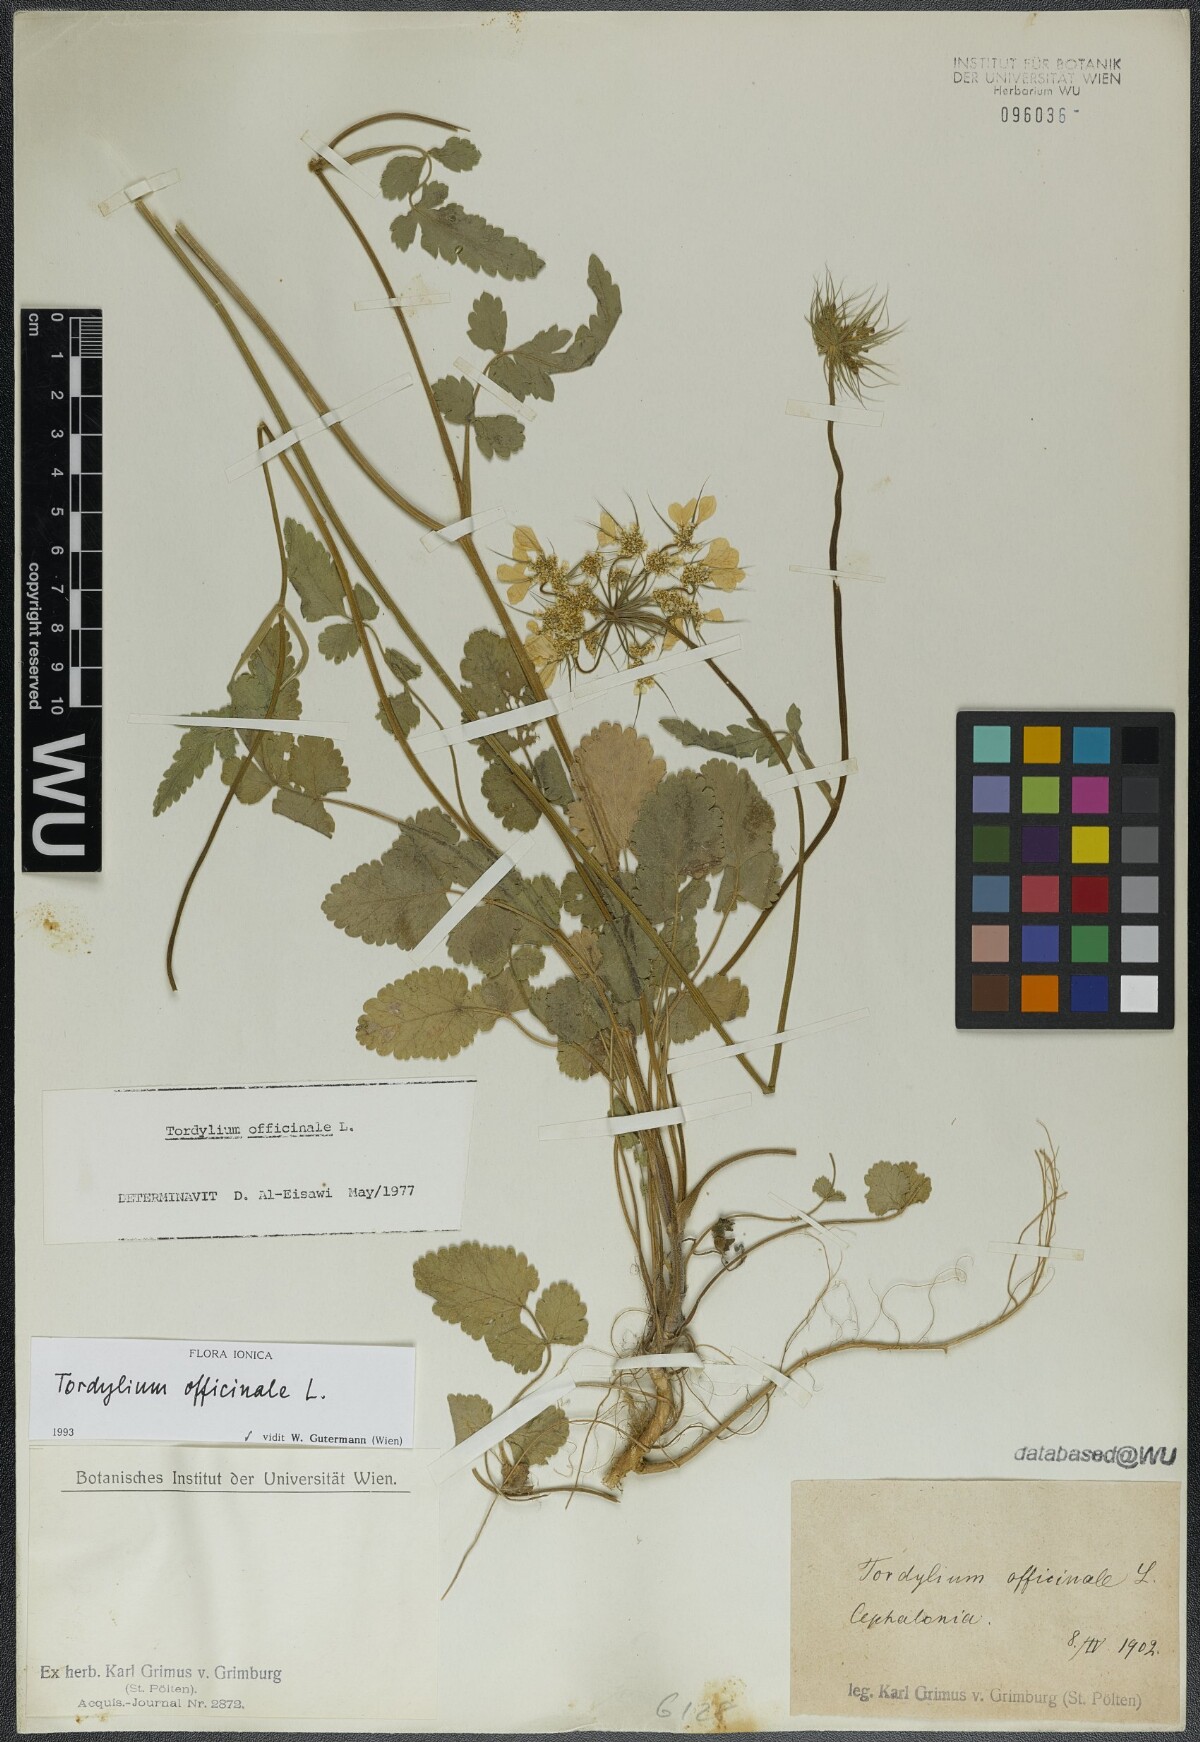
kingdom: Plantae
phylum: Tracheophyta
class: Magnoliopsida
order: Apiales
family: Apiaceae
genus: Tordylium
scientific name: Tordylium officinale
